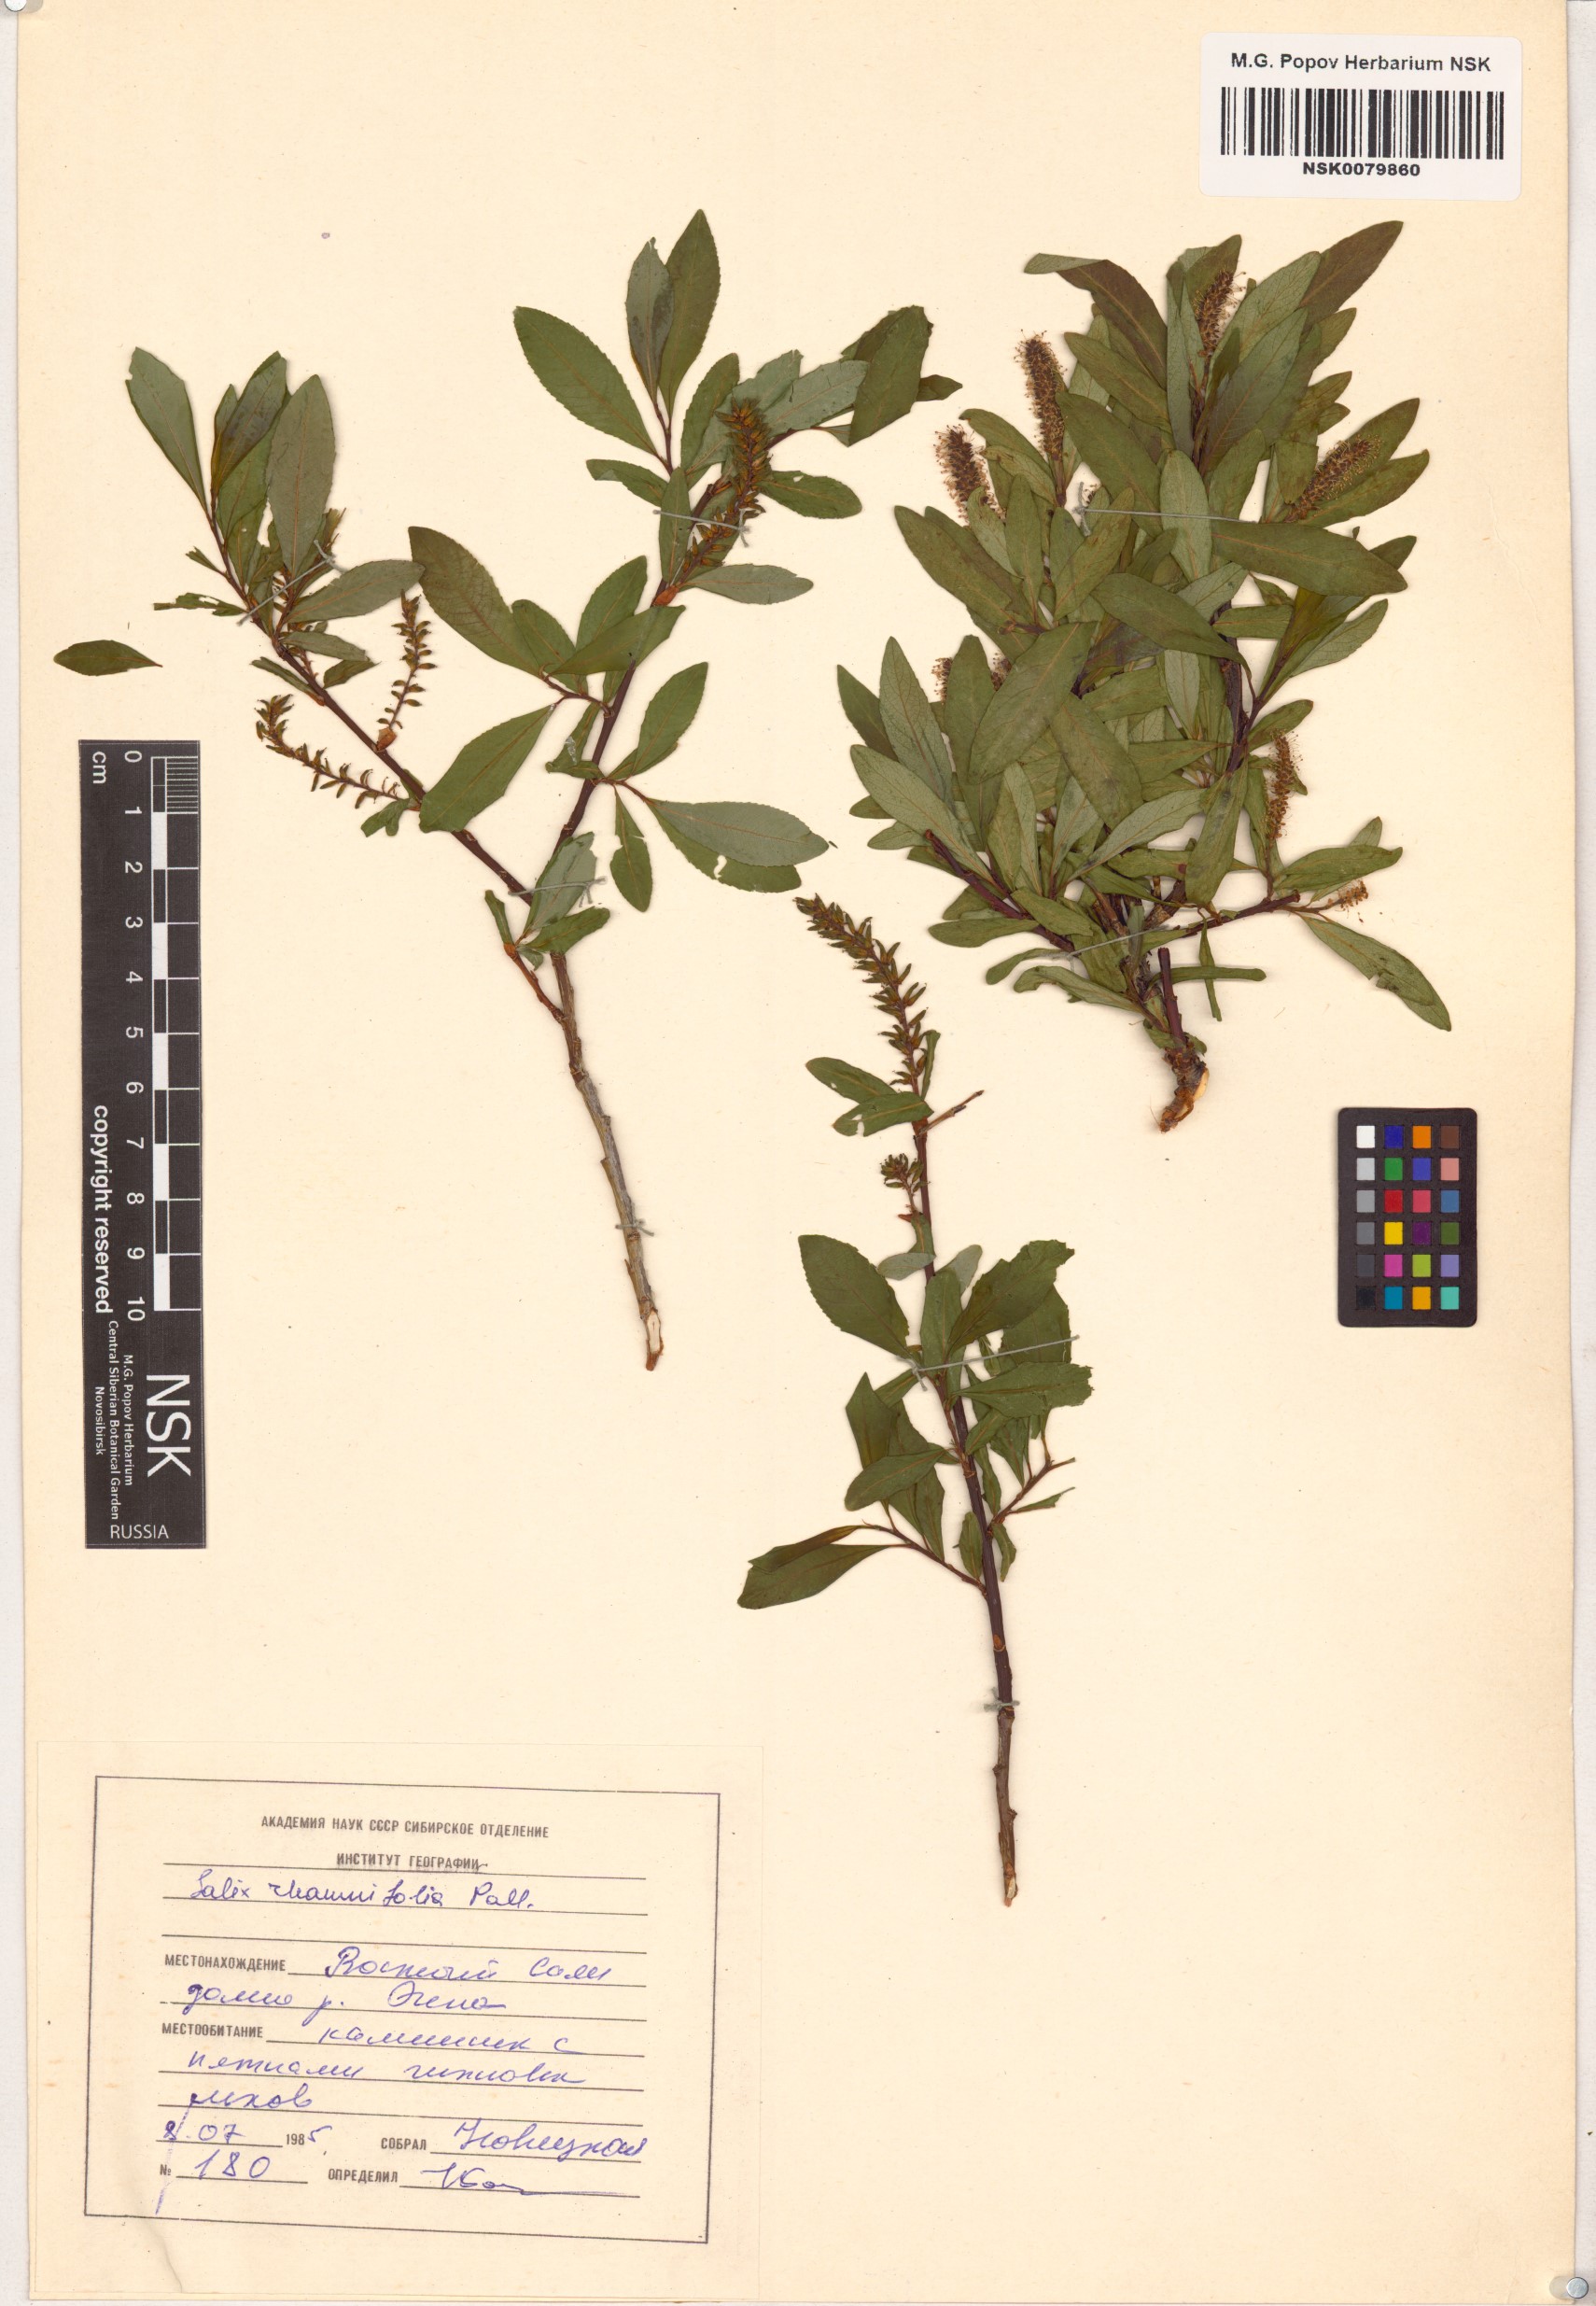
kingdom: Plantae
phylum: Tracheophyta
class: Magnoliopsida
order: Malpighiales
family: Salicaceae
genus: Salix
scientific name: Salix rhamnifolia
